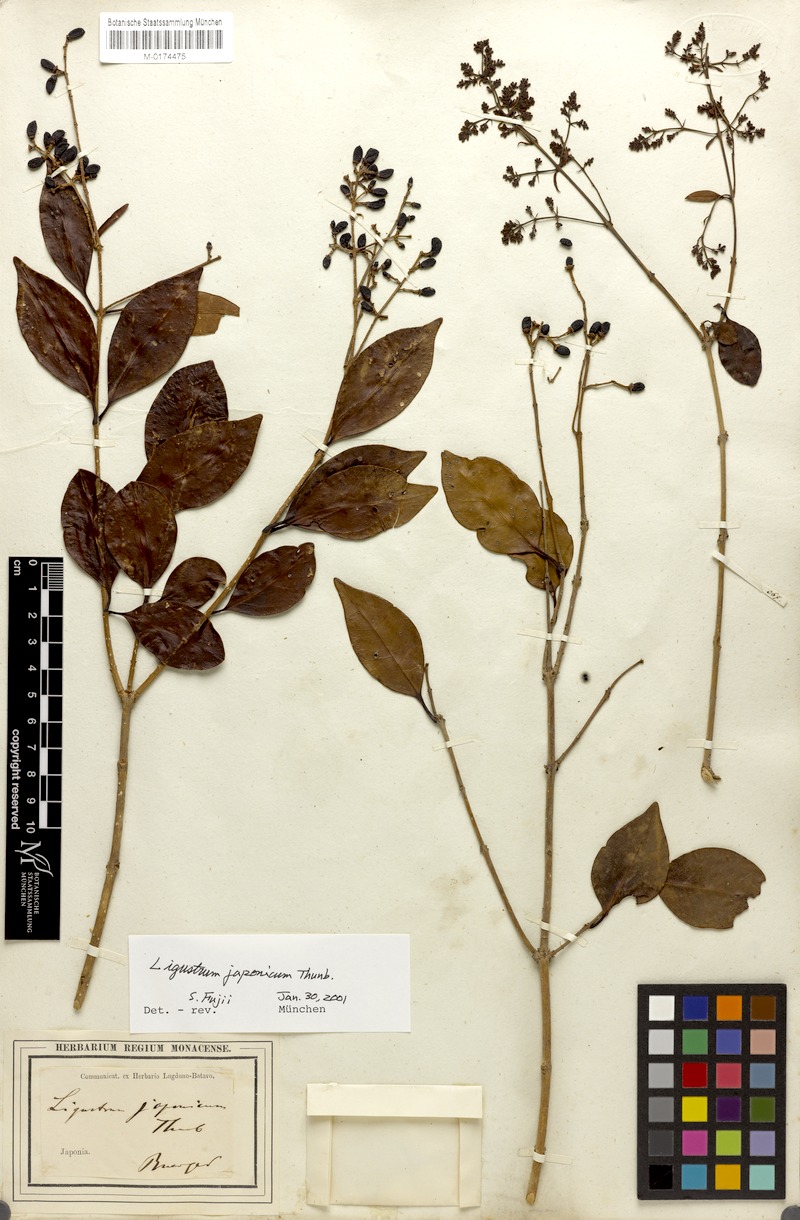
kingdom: Plantae
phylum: Tracheophyta
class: Magnoliopsida
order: Lamiales
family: Oleaceae
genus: Ligustrum
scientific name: Ligustrum japonicum
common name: Japanese privet
